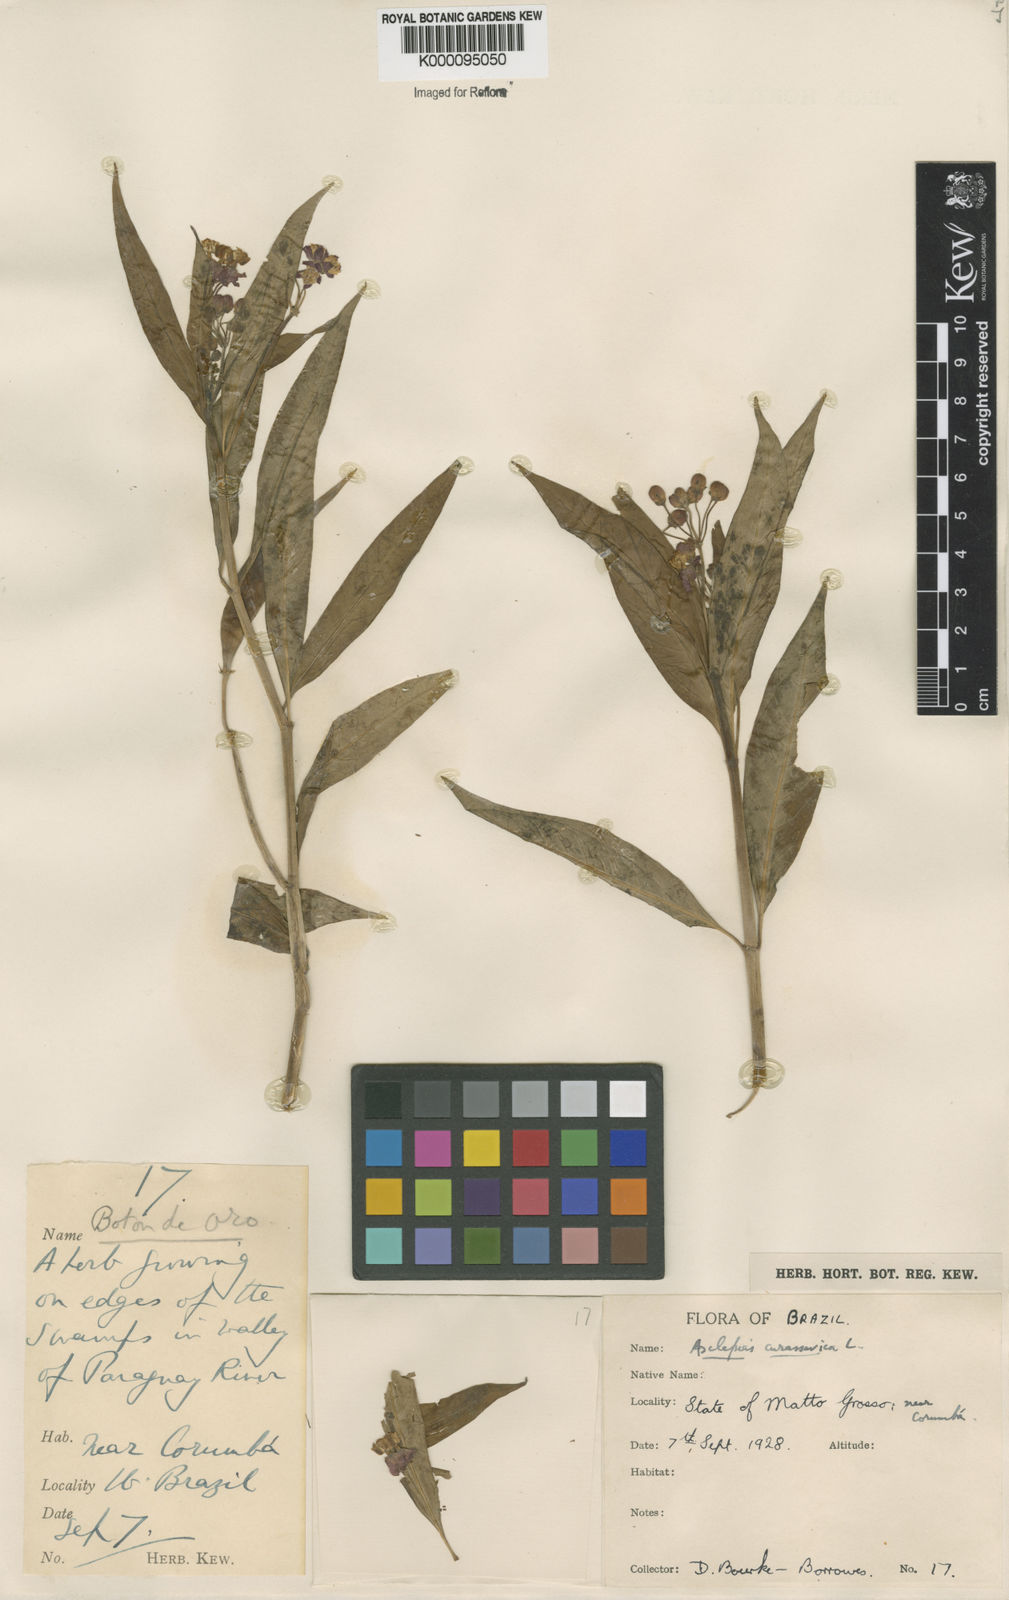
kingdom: Plantae
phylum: Tracheophyta
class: Magnoliopsida
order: Gentianales
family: Apocynaceae
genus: Asclepias
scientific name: Asclepias curassavica
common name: Bloodflower
